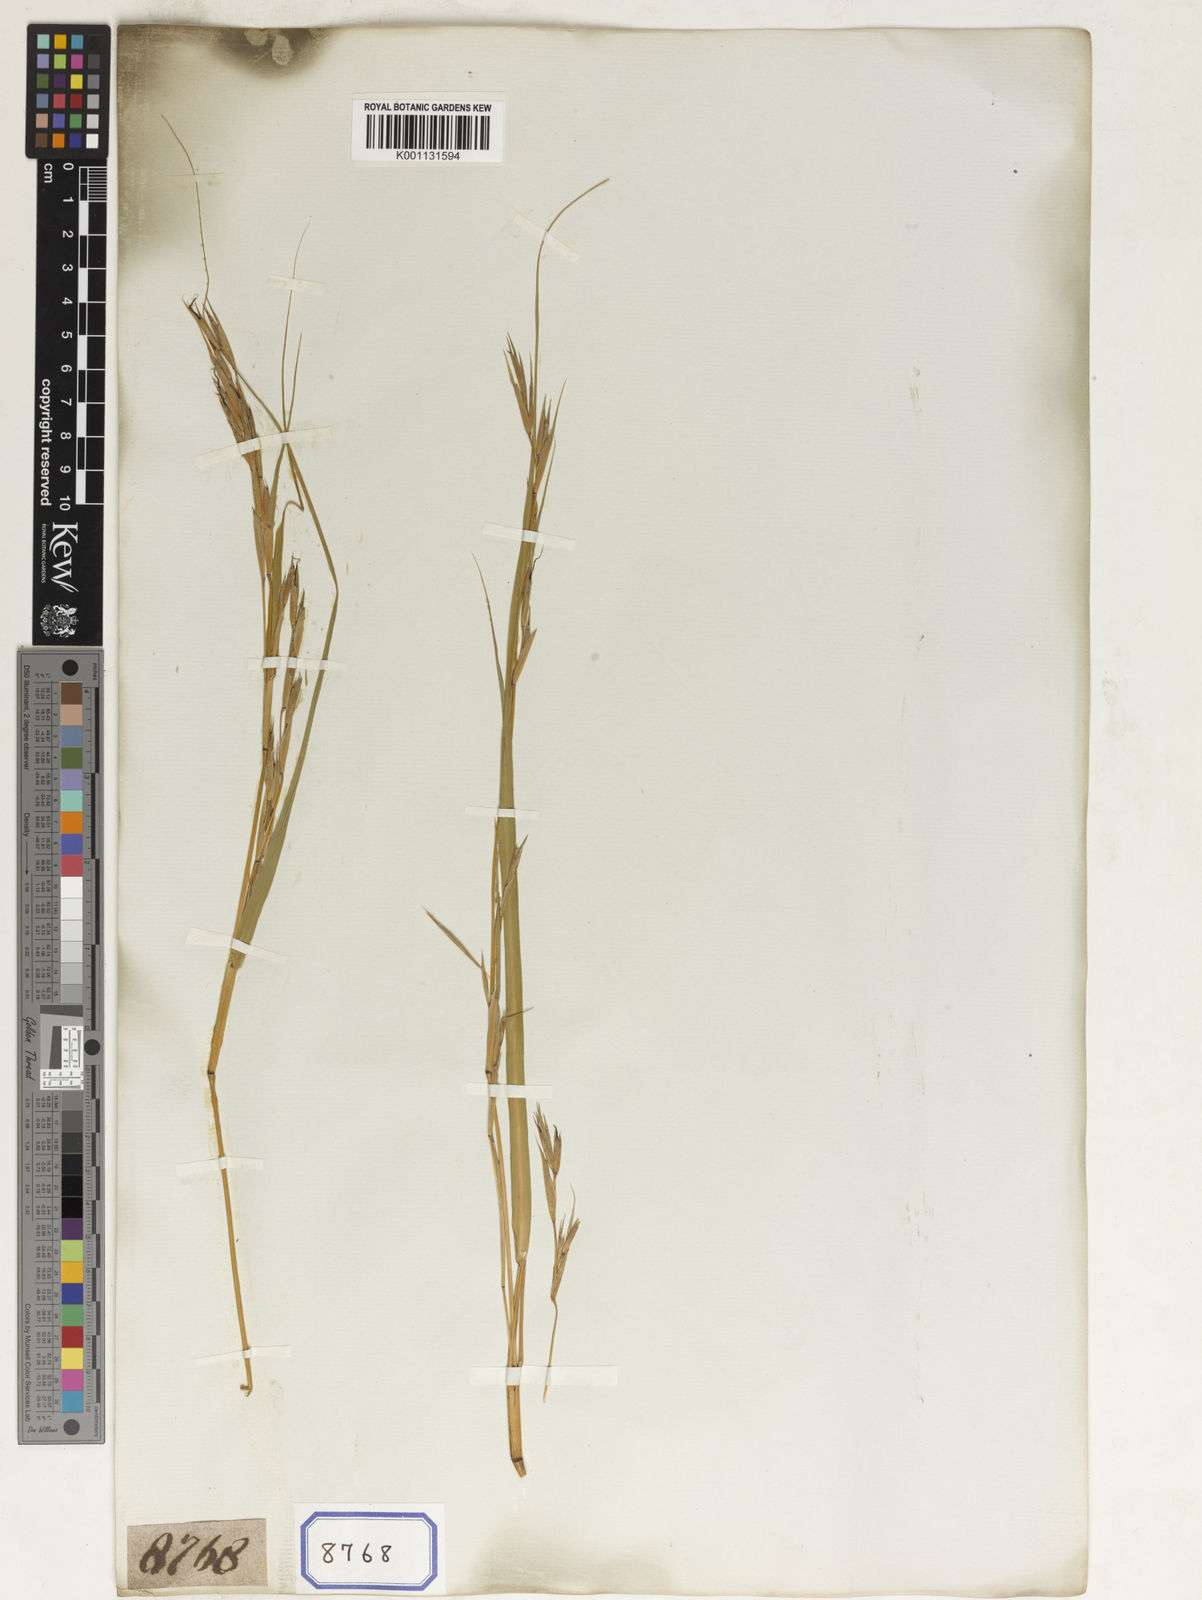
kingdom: Plantae
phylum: Tracheophyta
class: Liliopsida
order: Poales
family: Poaceae
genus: Themeda
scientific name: Themeda
